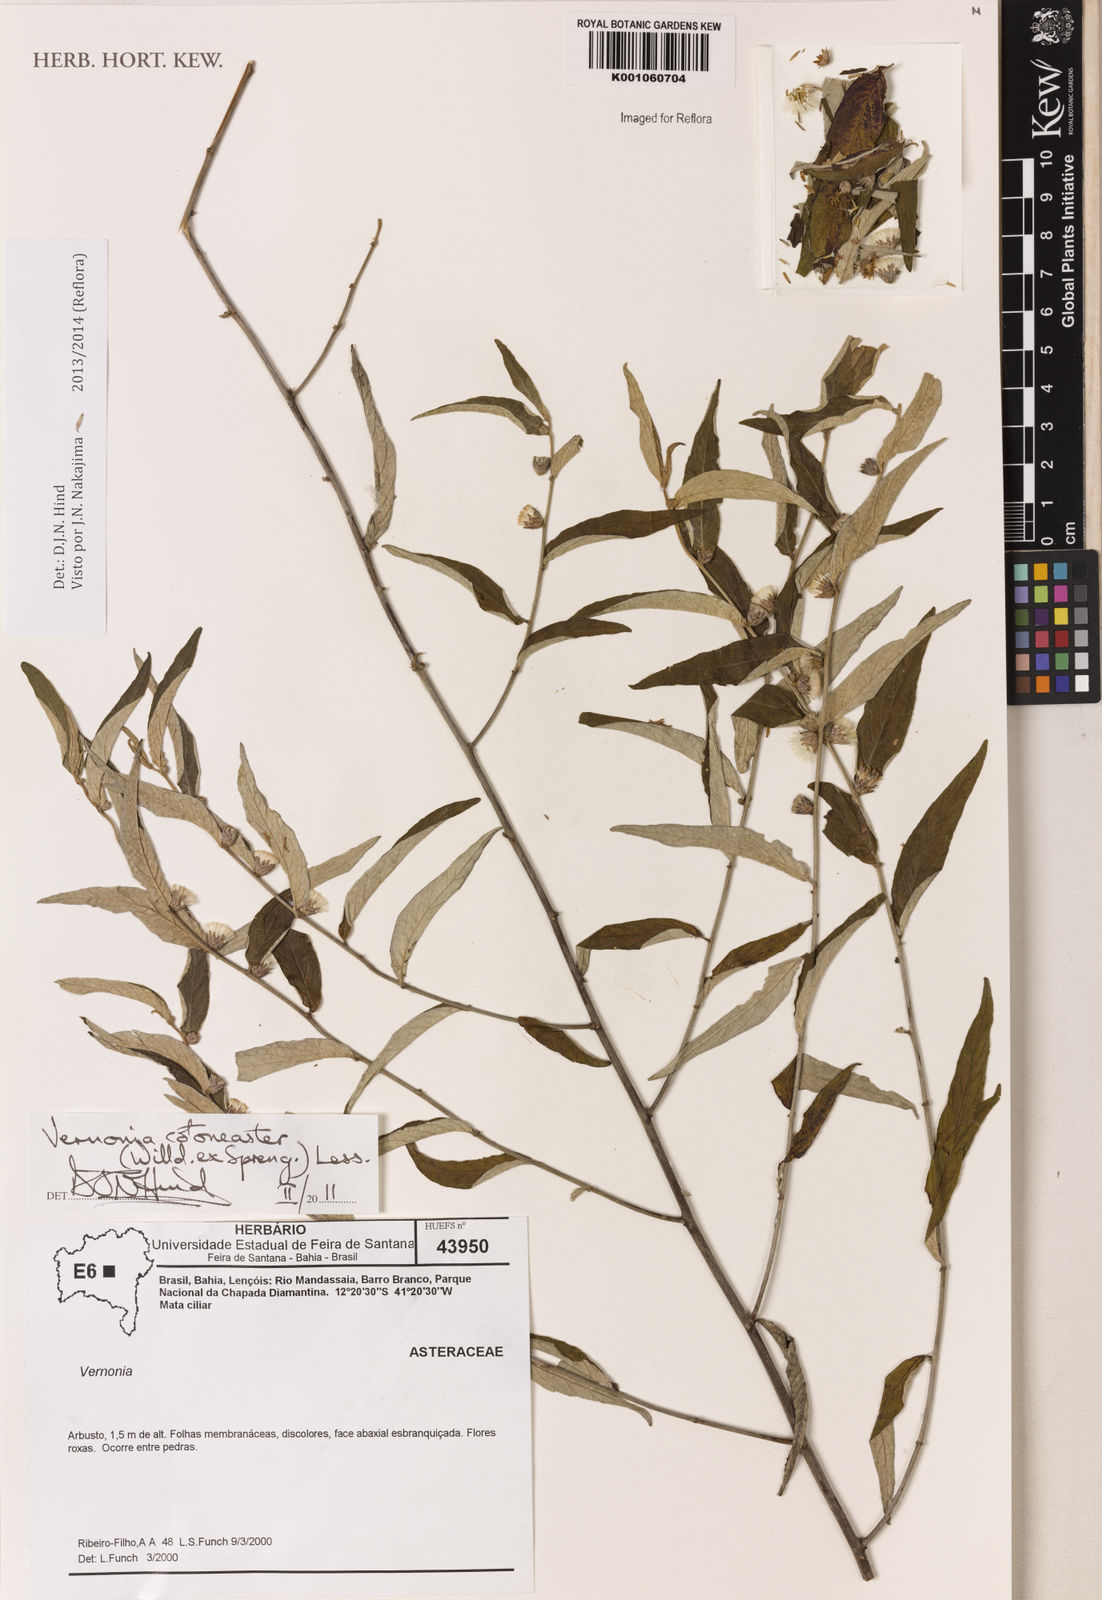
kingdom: Plantae
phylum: Tracheophyta
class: Magnoliopsida
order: Asterales
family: Asteraceae
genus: Lepidaploa
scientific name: Lepidaploa cotoneaster
